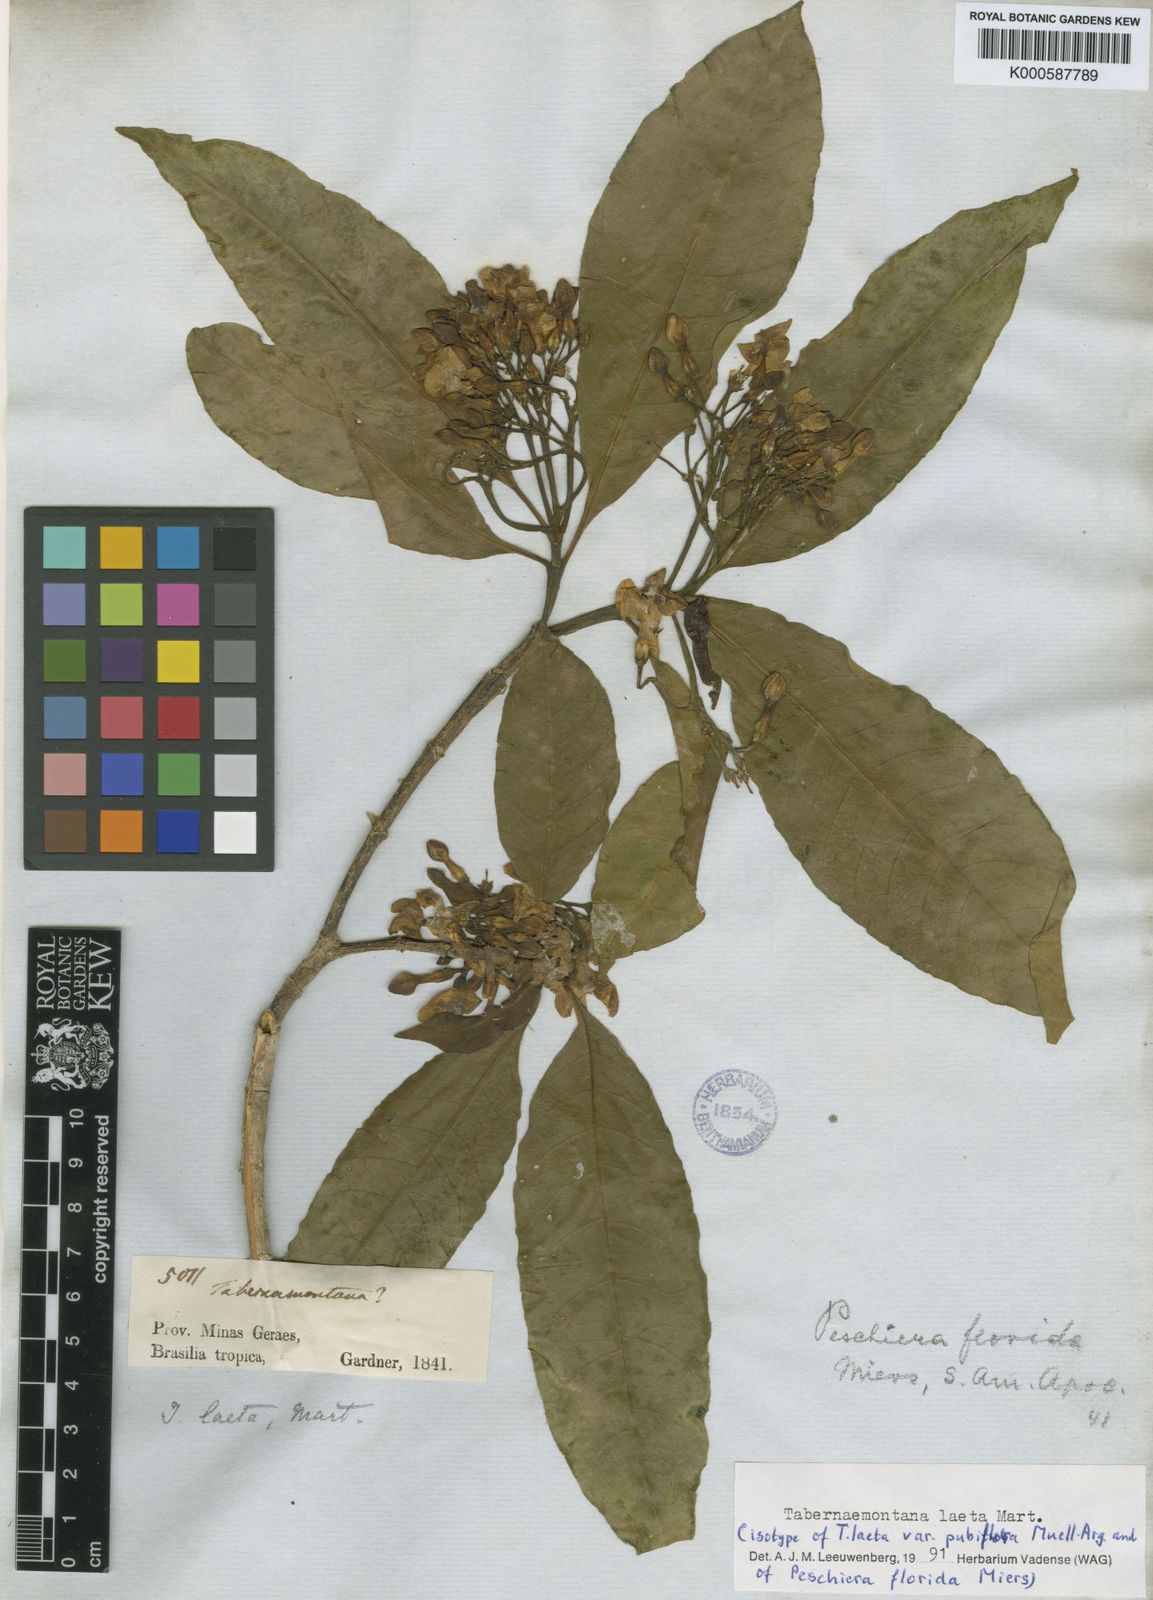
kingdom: Plantae
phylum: Tracheophyta
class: Magnoliopsida
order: Gentianales
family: Apocynaceae
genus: Tabernaemontana
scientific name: Tabernaemontana laeta
